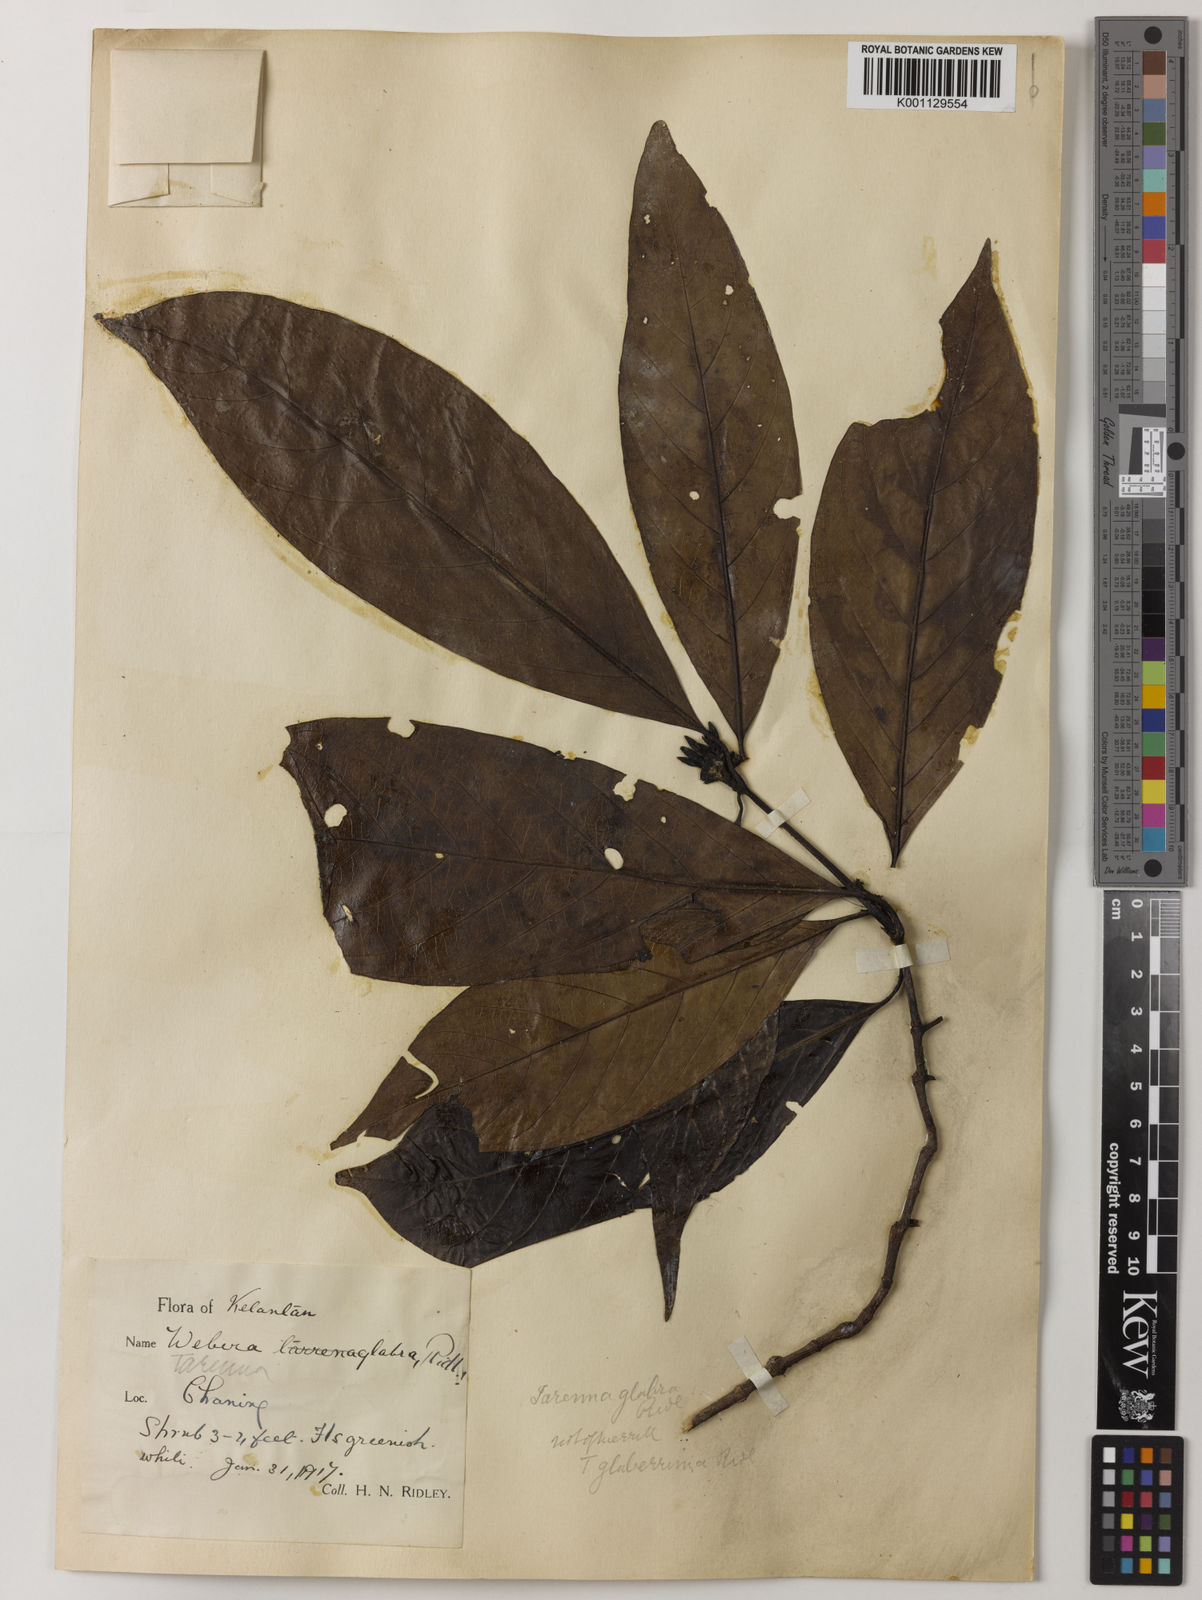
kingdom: Plantae
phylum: Tracheophyta
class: Magnoliopsida
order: Gentianales
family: Rubiaceae
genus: Tarenna
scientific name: Tarenna glaberrima
